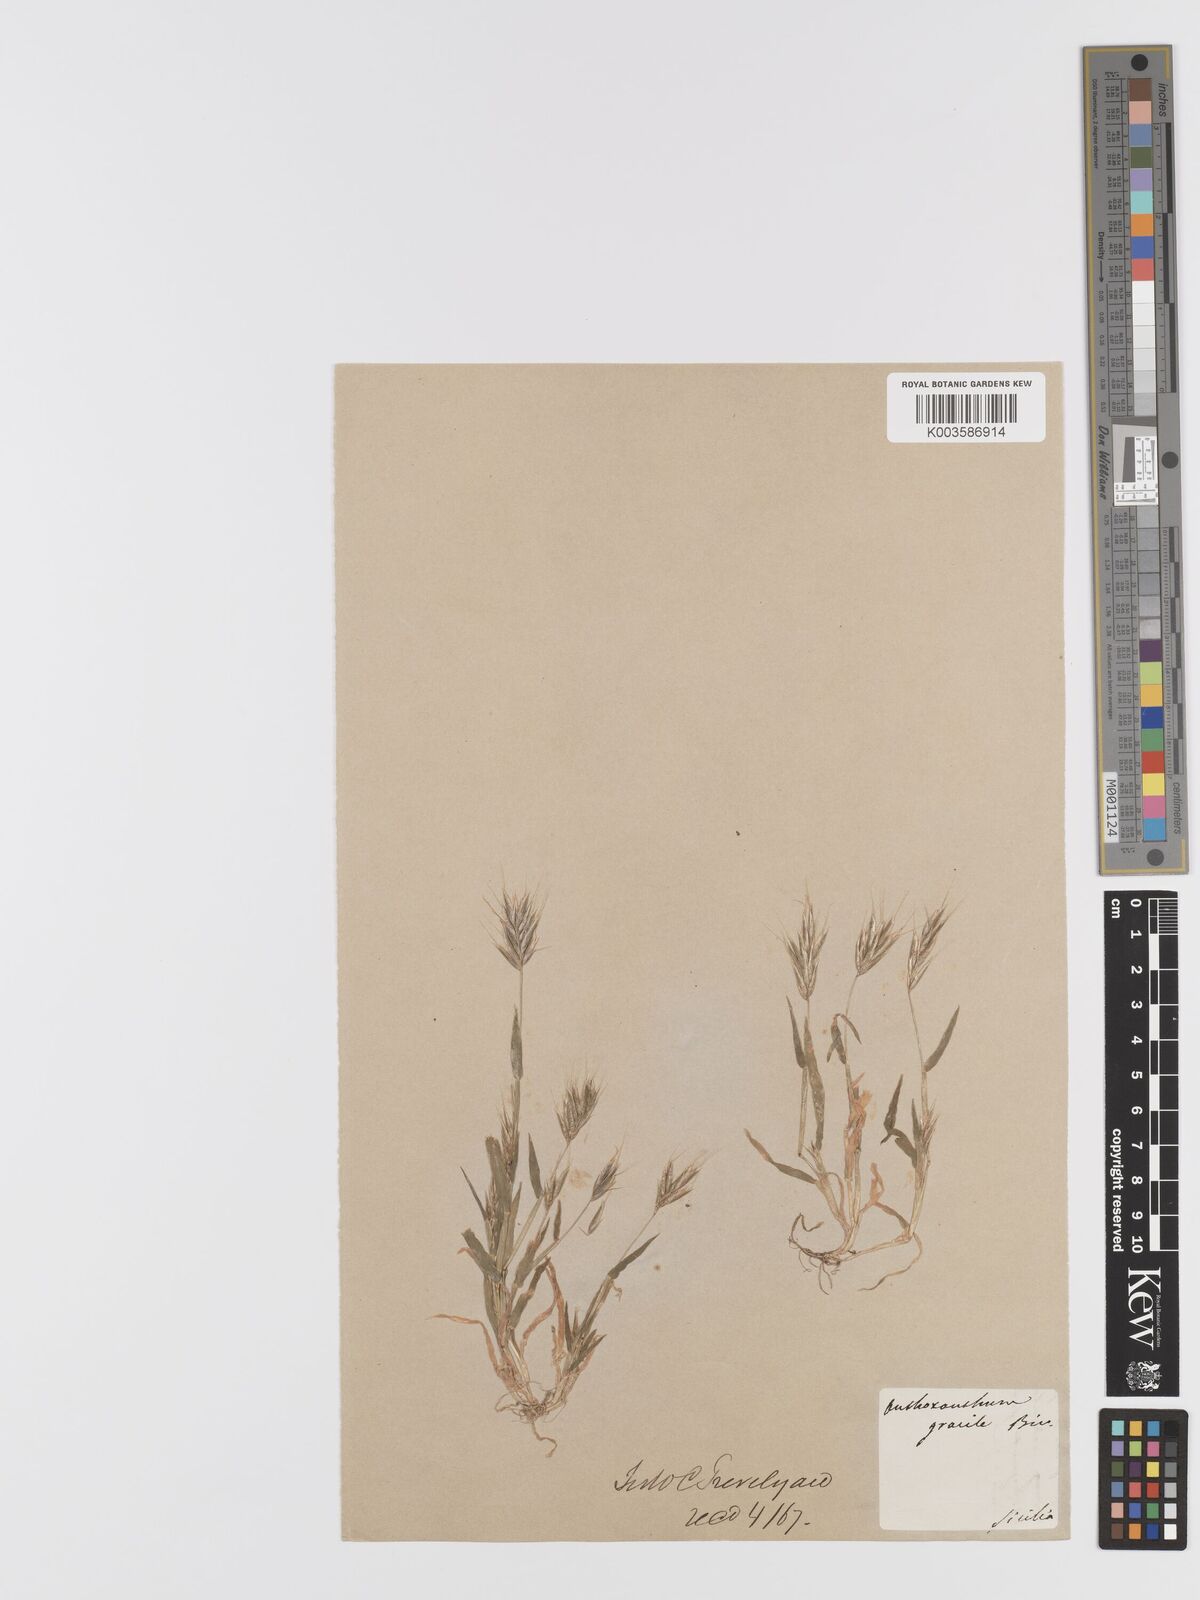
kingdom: Plantae
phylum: Tracheophyta
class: Liliopsida
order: Poales
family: Poaceae
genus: Anthoxanthum
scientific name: Anthoxanthum gracile
